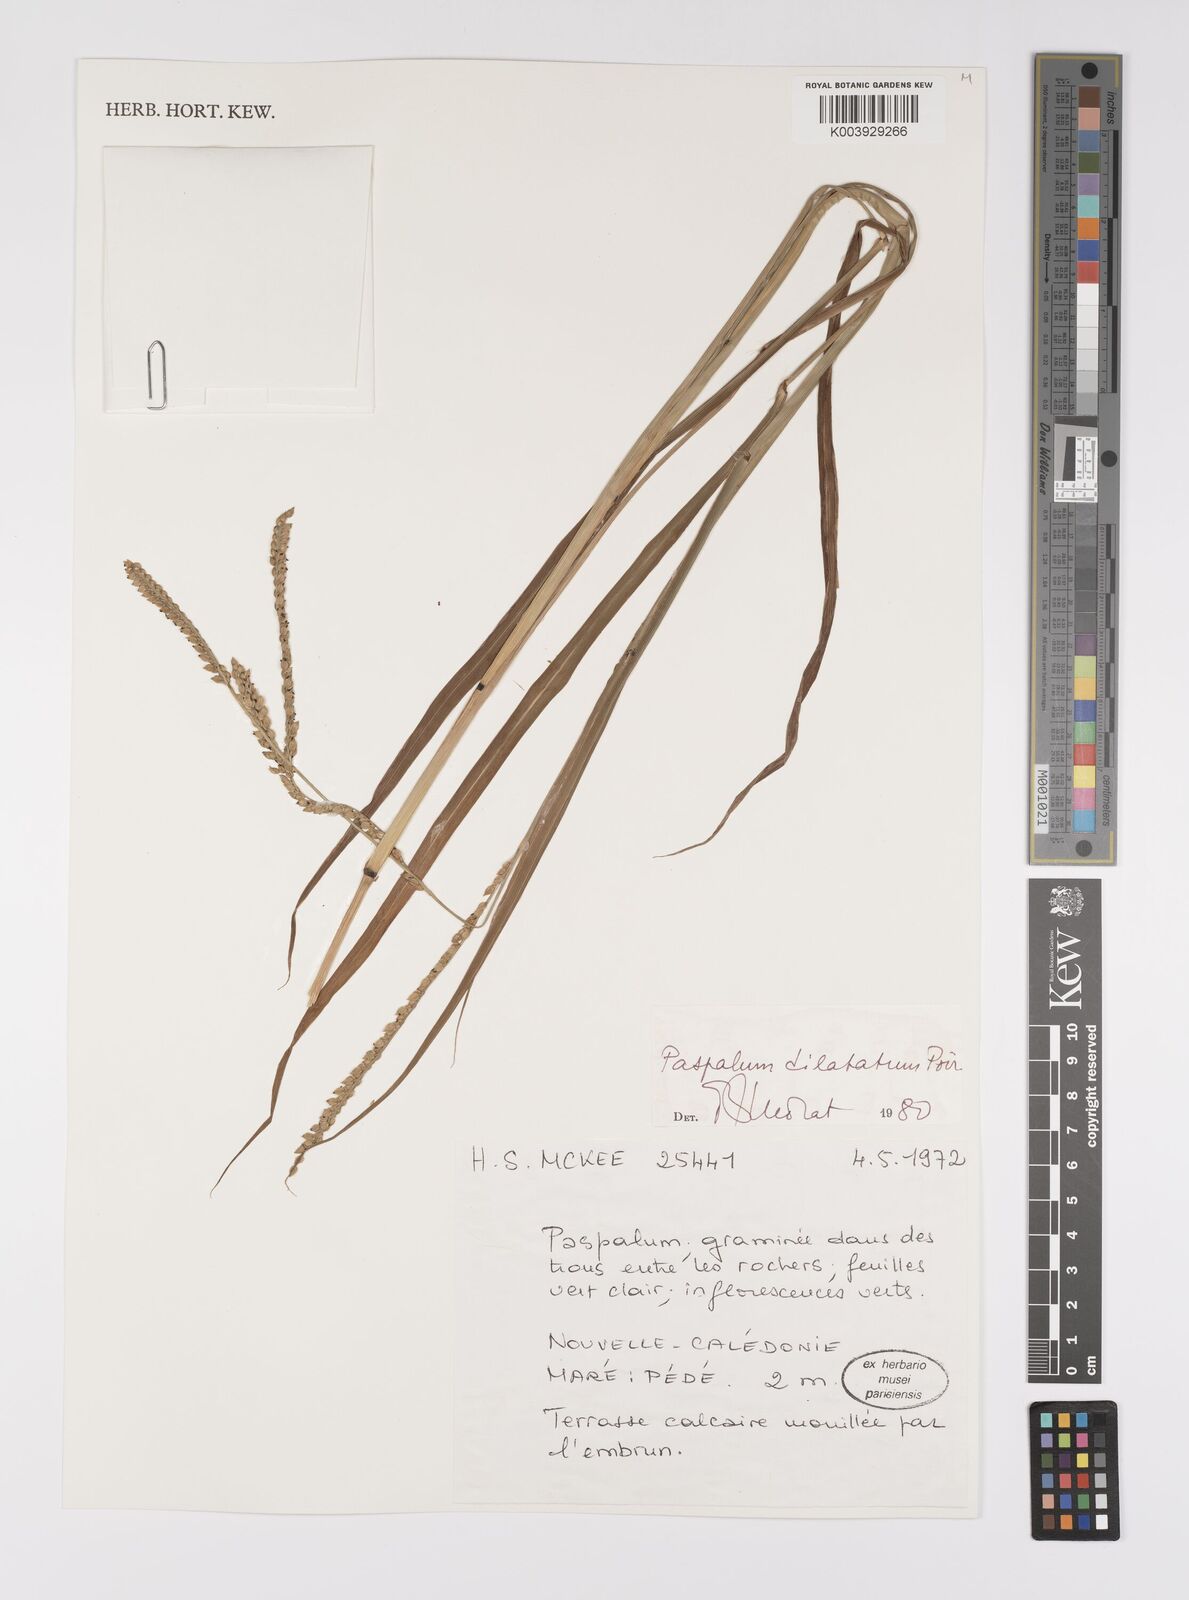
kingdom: Plantae
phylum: Tracheophyta
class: Liliopsida
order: Poales
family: Poaceae
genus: Paspalum
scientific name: Paspalum dilatatum
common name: Dallisgrass
